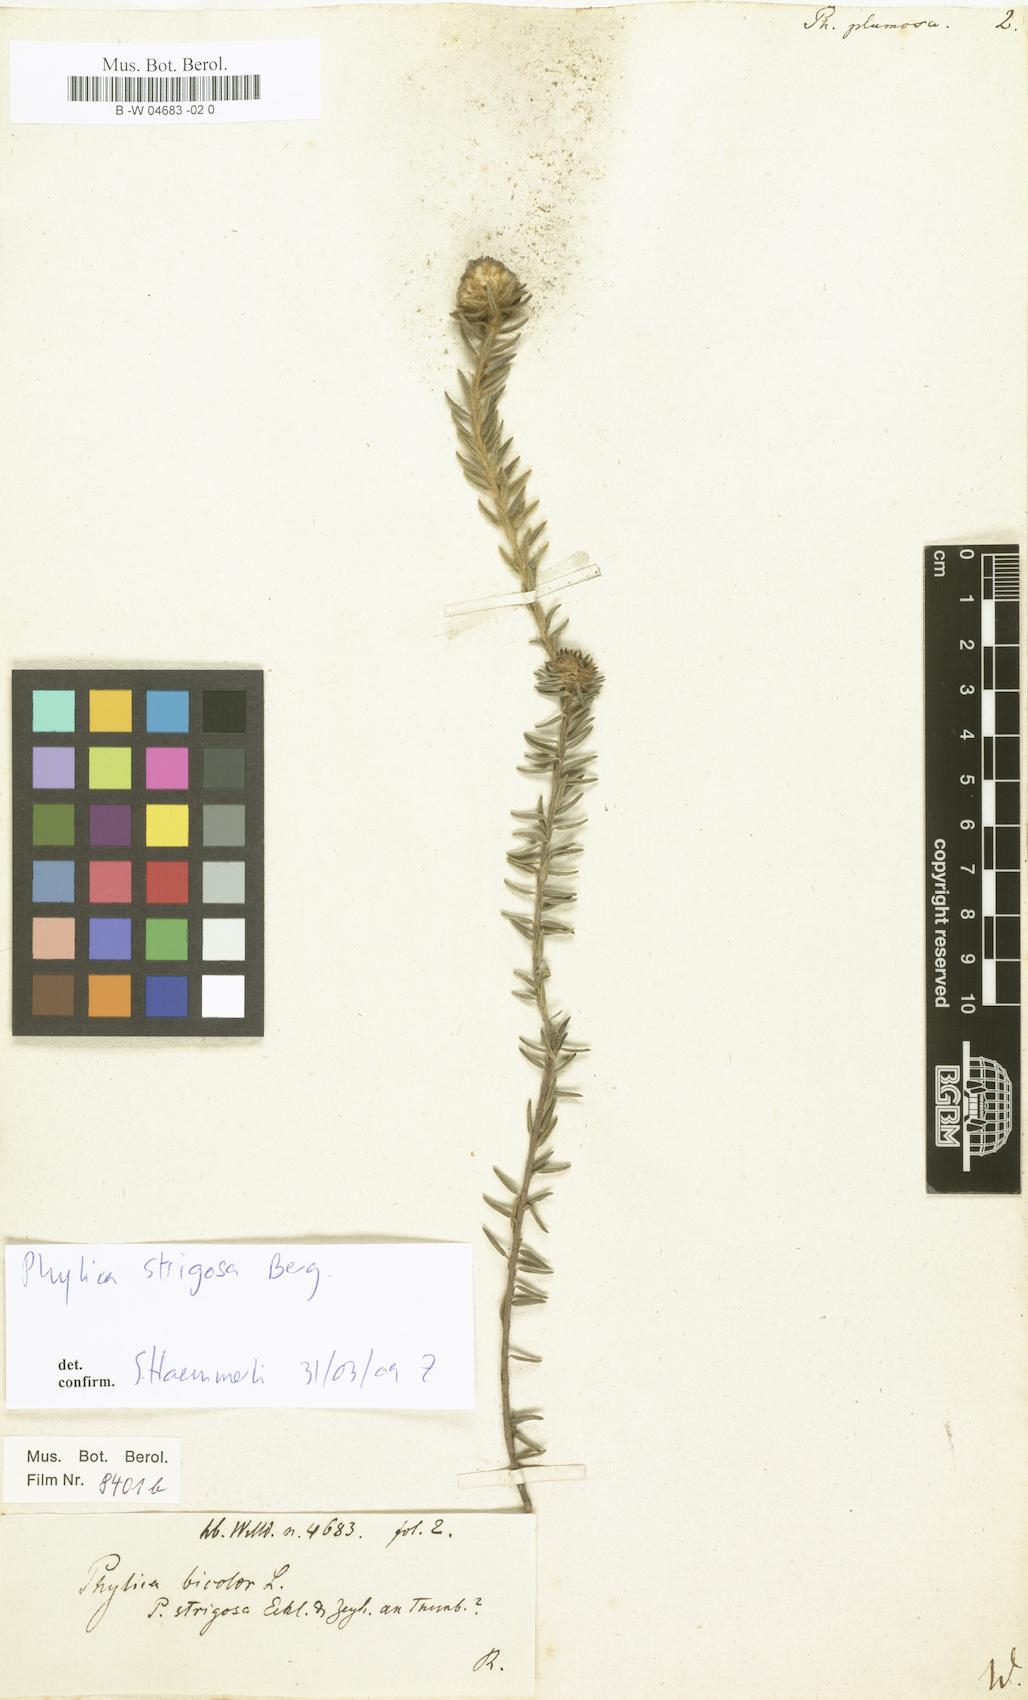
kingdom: Plantae
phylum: Tracheophyta
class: Magnoliopsida
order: Rosales
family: Rhamnaceae
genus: Phylica
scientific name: Phylica plumosa
